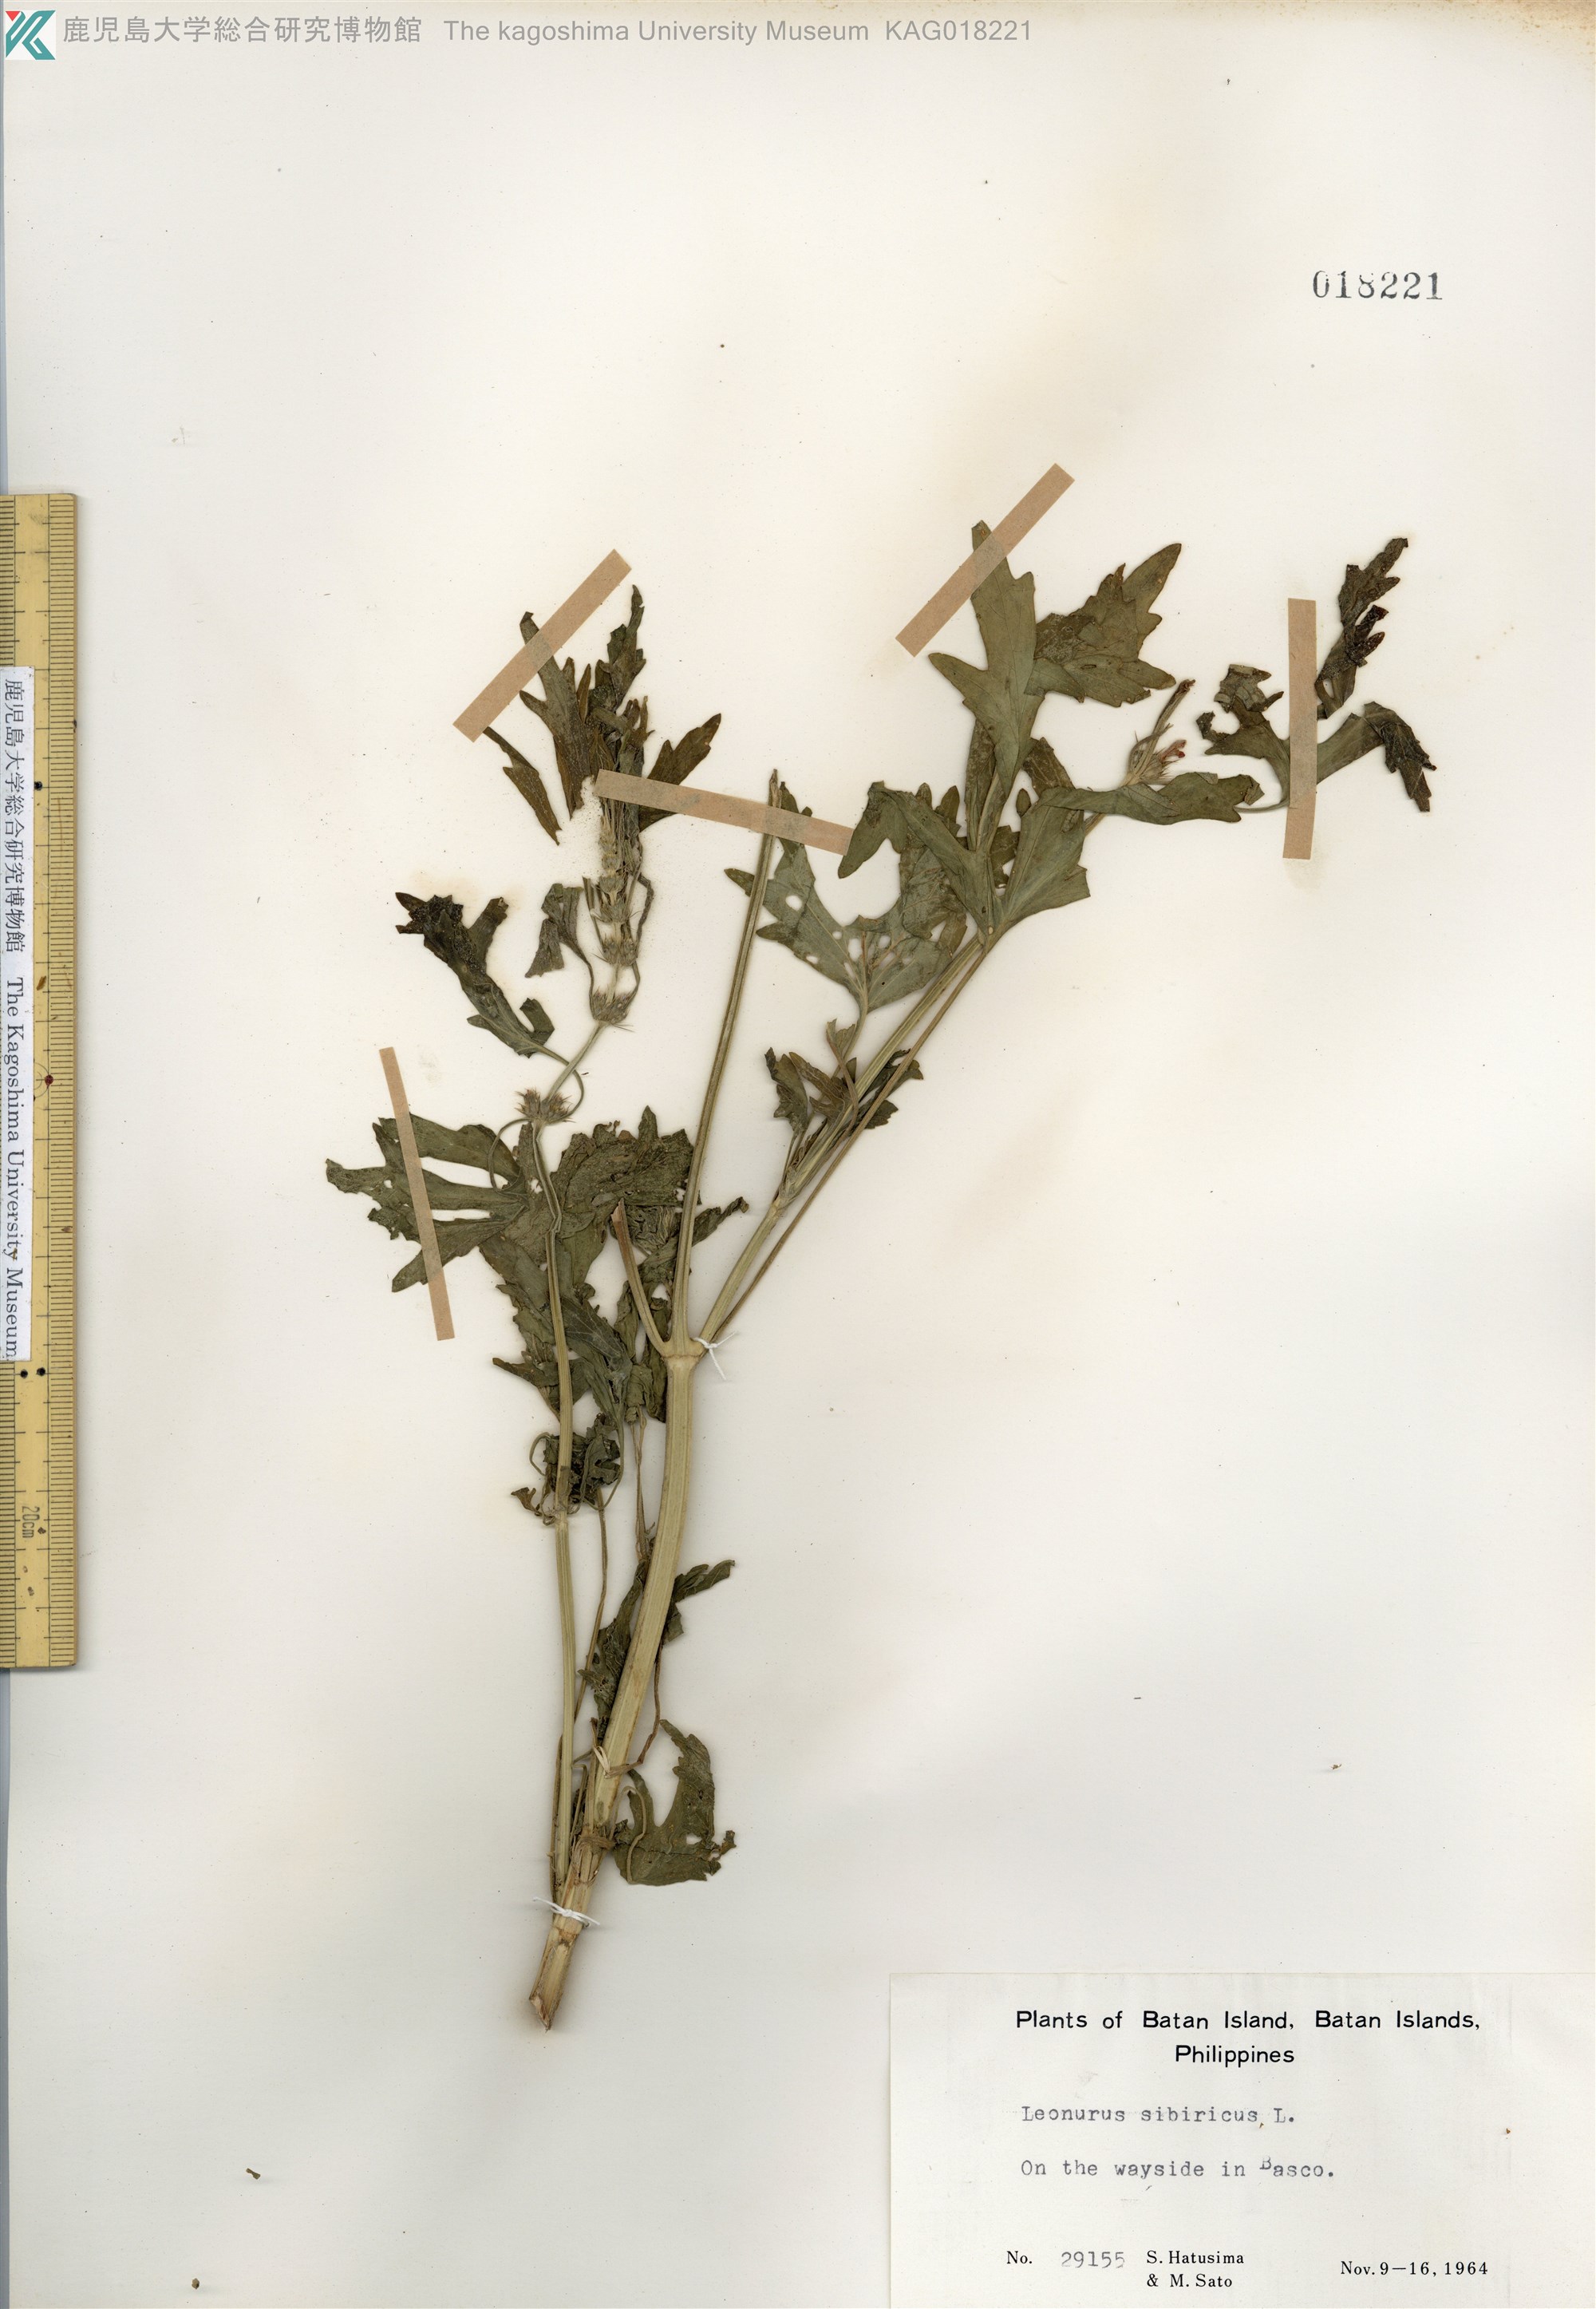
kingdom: Plantae
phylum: Tracheophyta
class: Magnoliopsida
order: Lamiales
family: Lamiaceae
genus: Leonurus
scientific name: Leonurus japonicus
